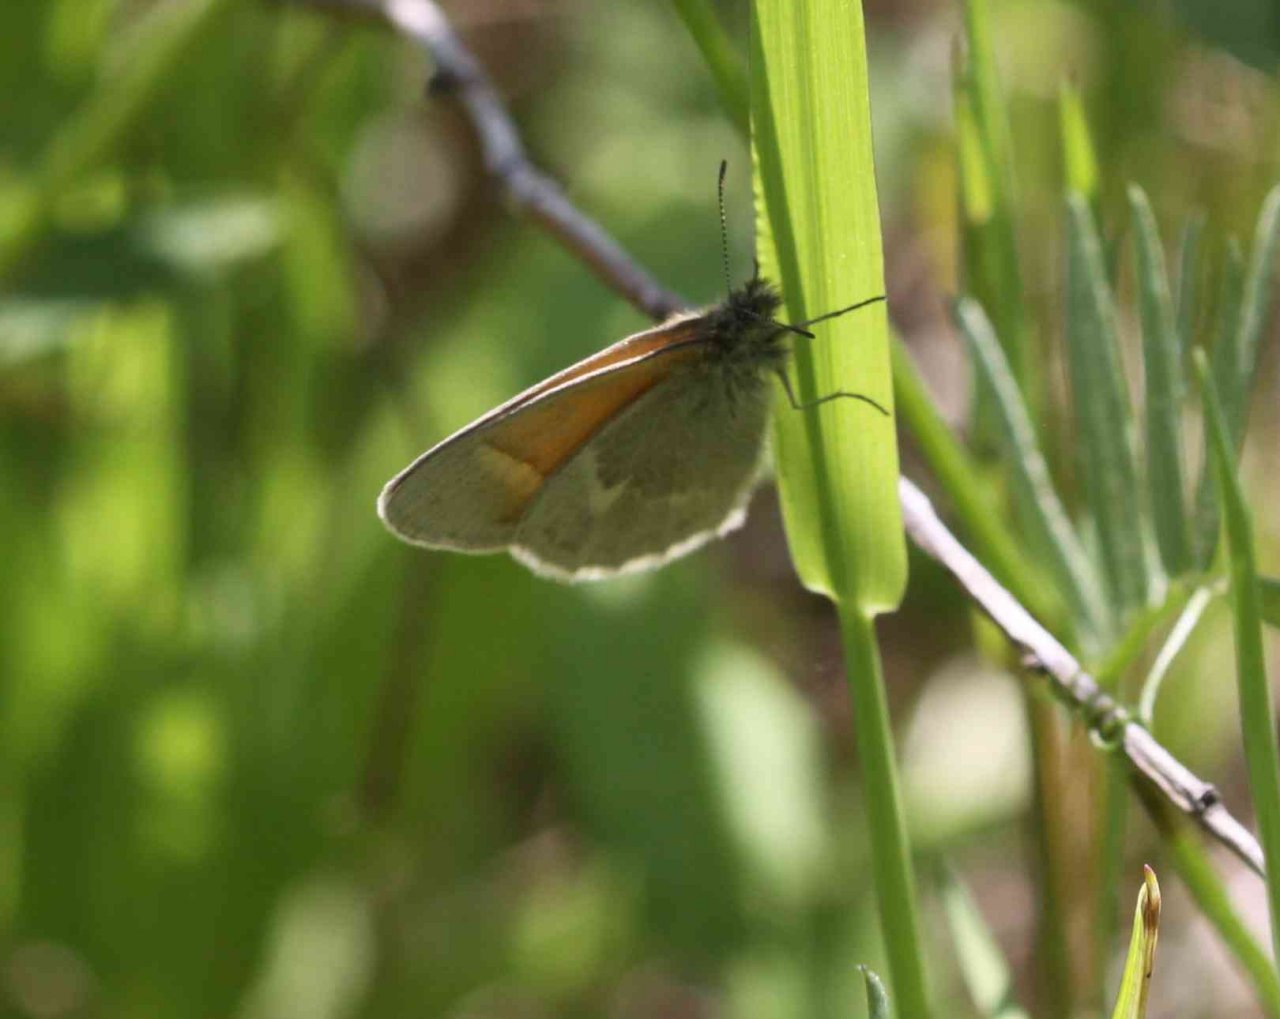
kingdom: Animalia
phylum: Arthropoda
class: Insecta
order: Lepidoptera
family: Nymphalidae
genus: Coenonympha
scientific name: Coenonympha tullia
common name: Large Heath
